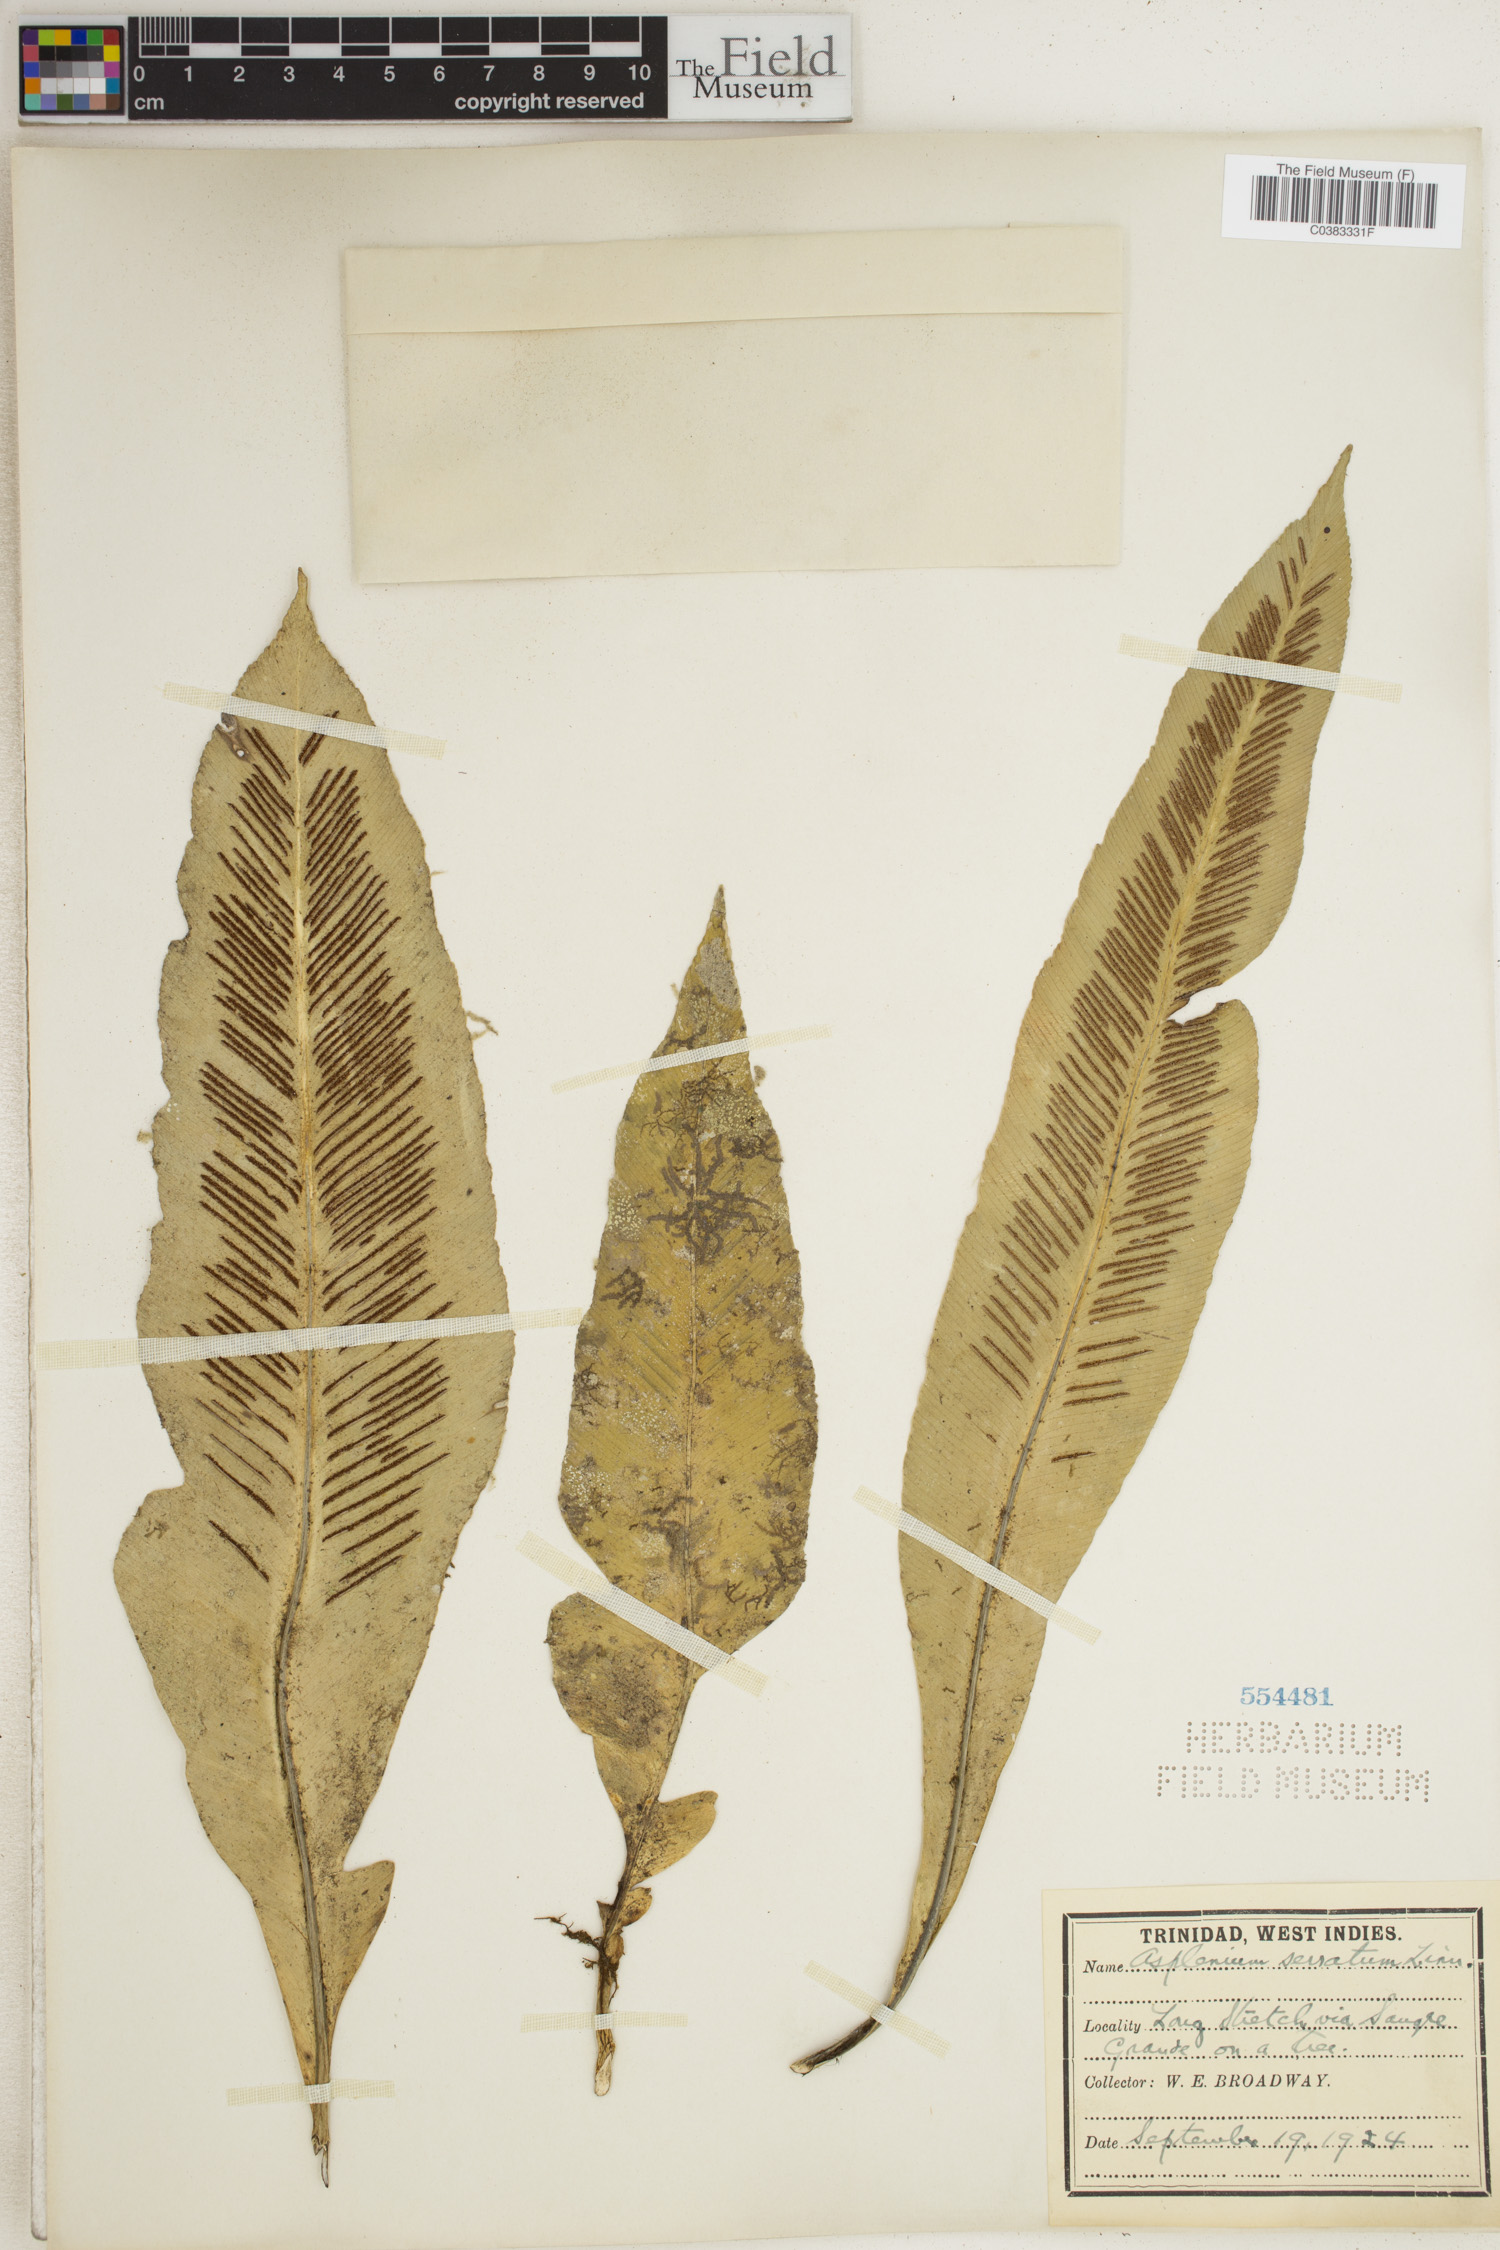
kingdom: Plantae
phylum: Tracheophyta
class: Polypodiopsida
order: Polypodiales
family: Aspleniaceae
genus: Asplenium
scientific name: Asplenium serratum
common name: Wild birdnest fern
